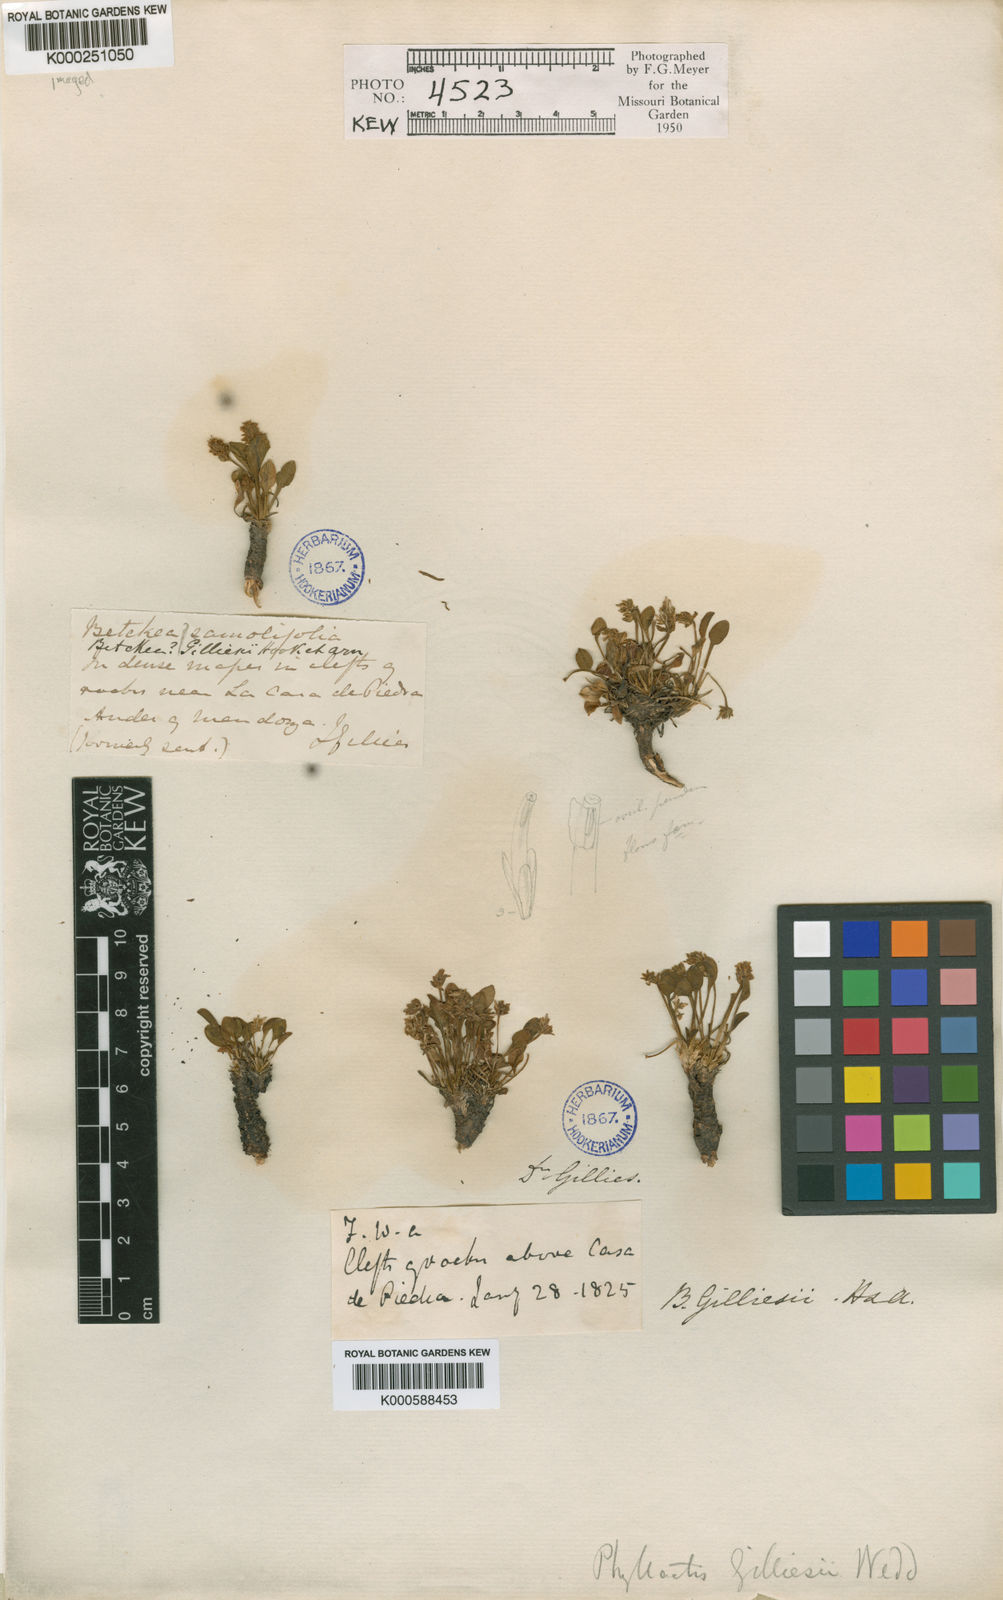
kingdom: Plantae
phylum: Tracheophyta
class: Magnoliopsida
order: Dipsacales
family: Caprifoliaceae
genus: Valeriana
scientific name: Valeriana macrorhiza
